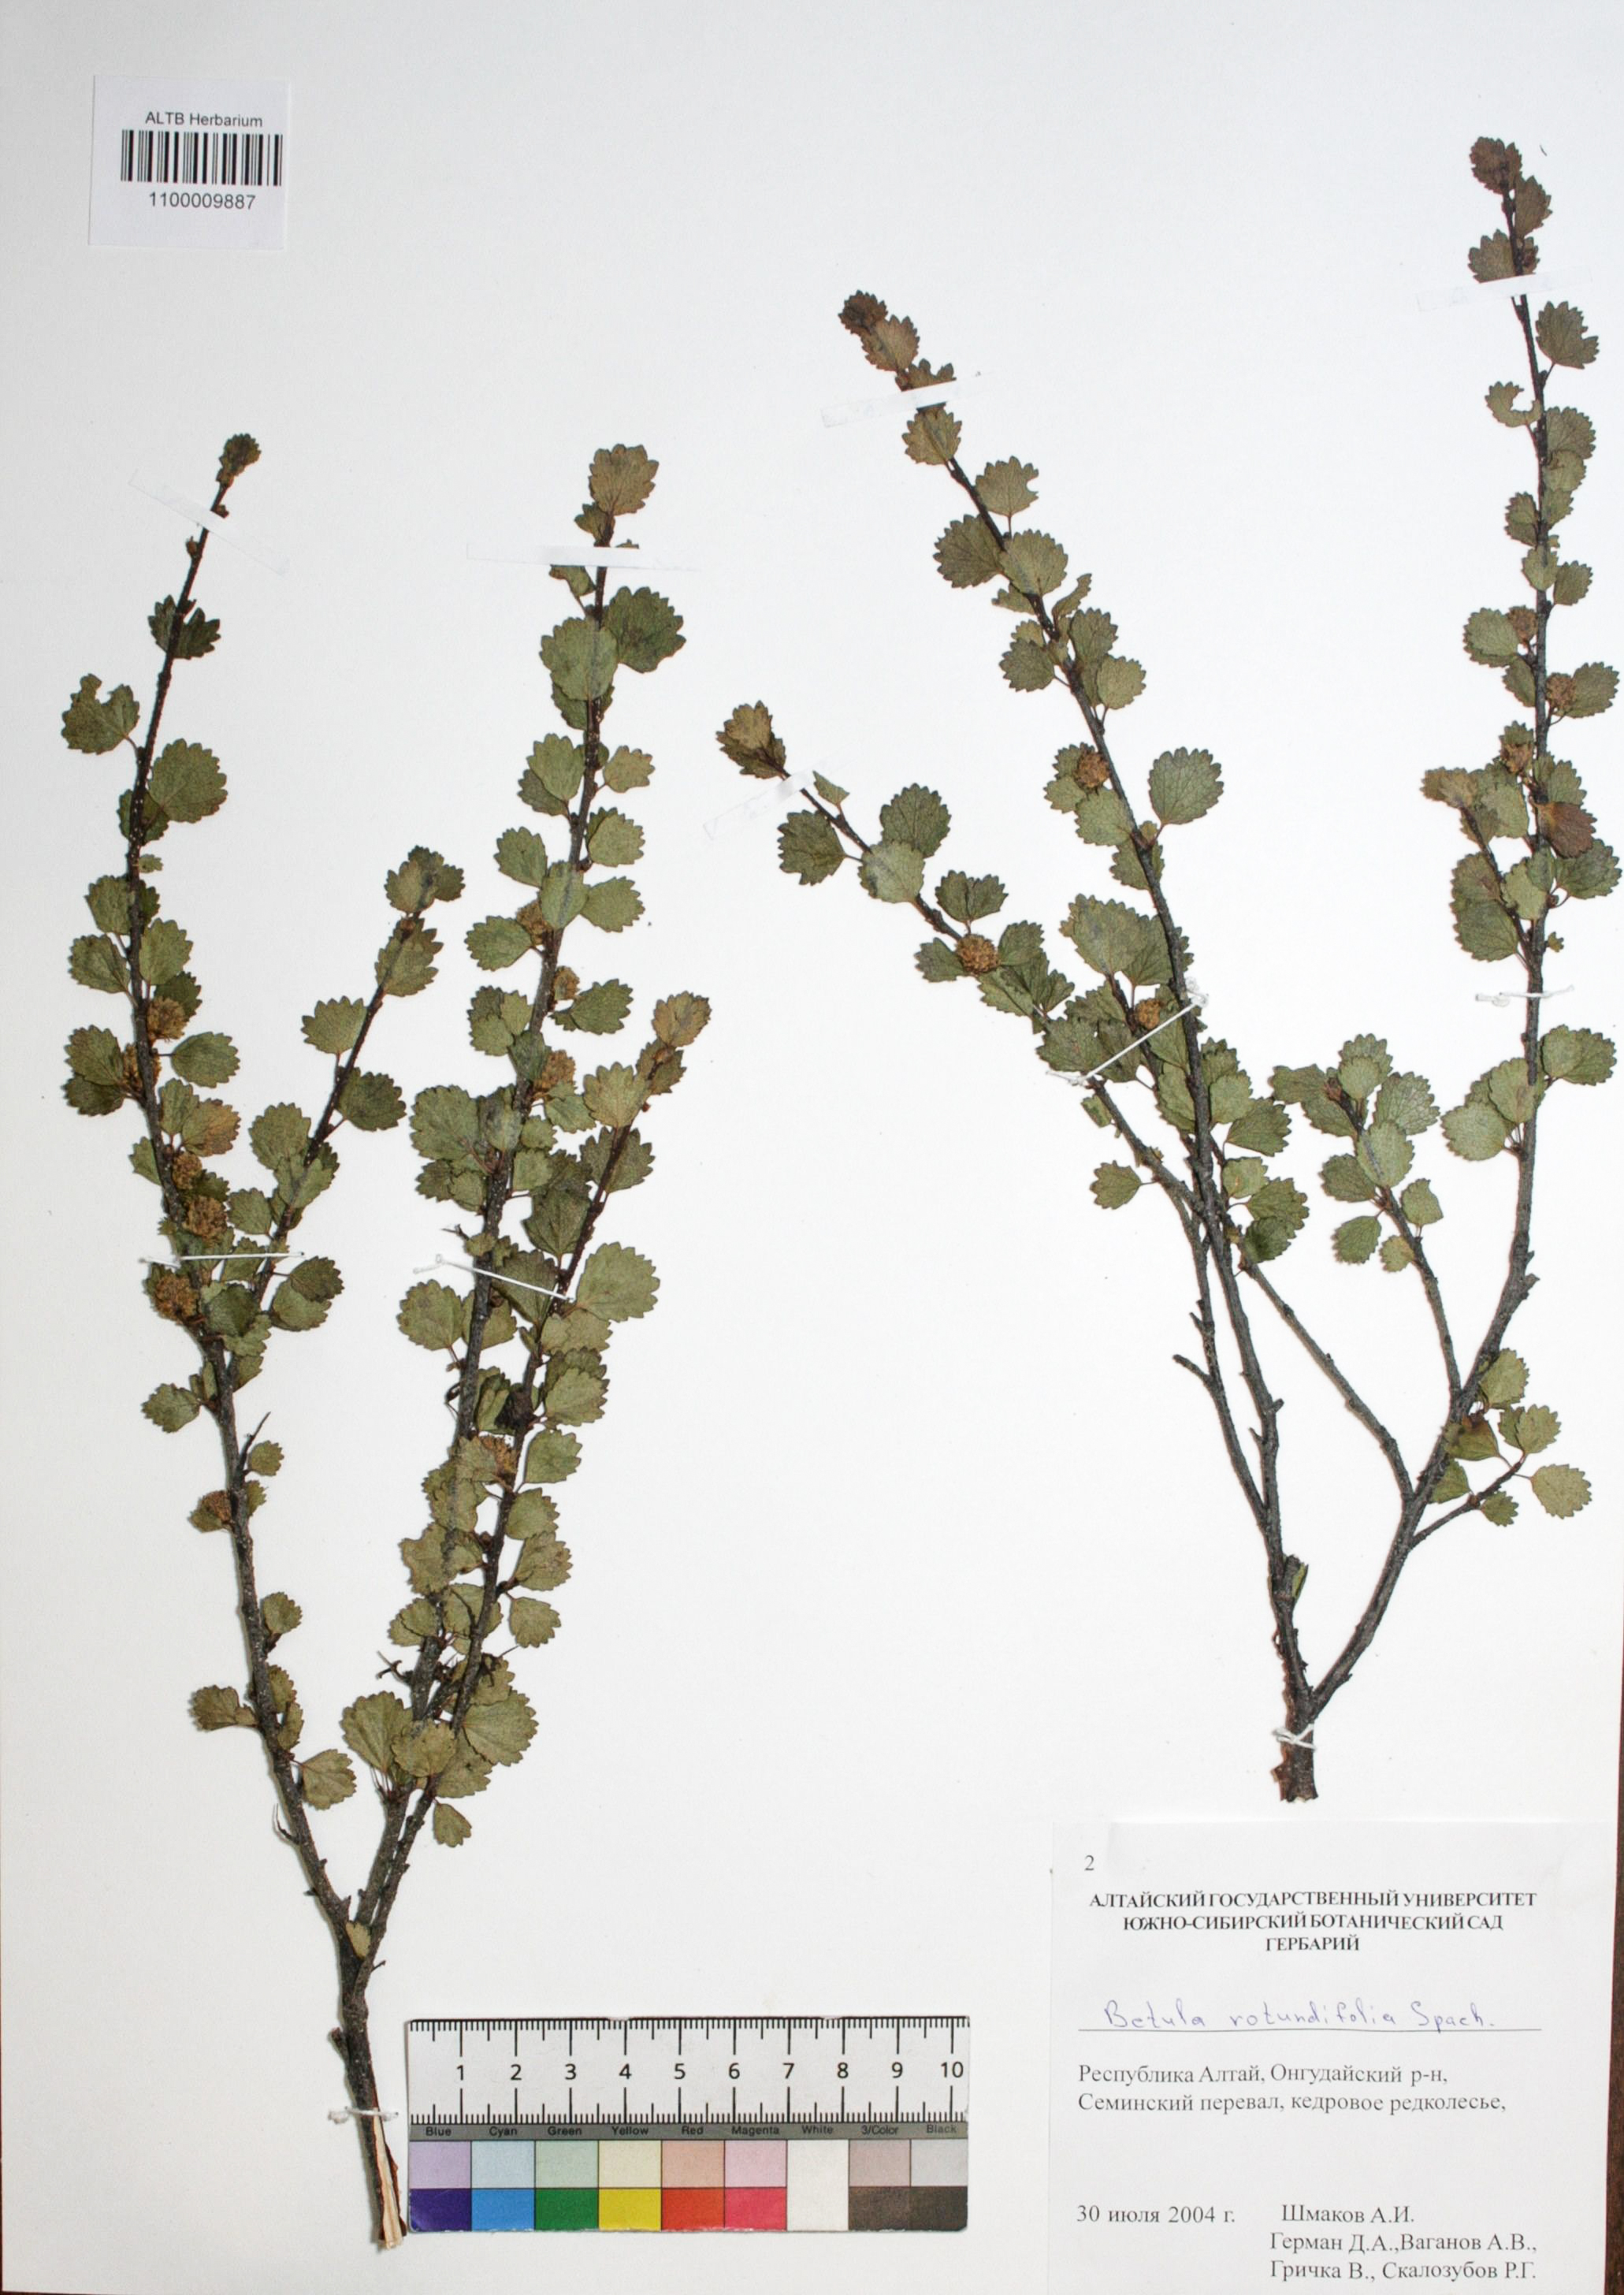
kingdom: Plantae
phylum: Tracheophyta
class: Magnoliopsida
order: Fagales
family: Betulaceae
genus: Betula
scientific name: Betula glandulosa
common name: Dwarf birch
